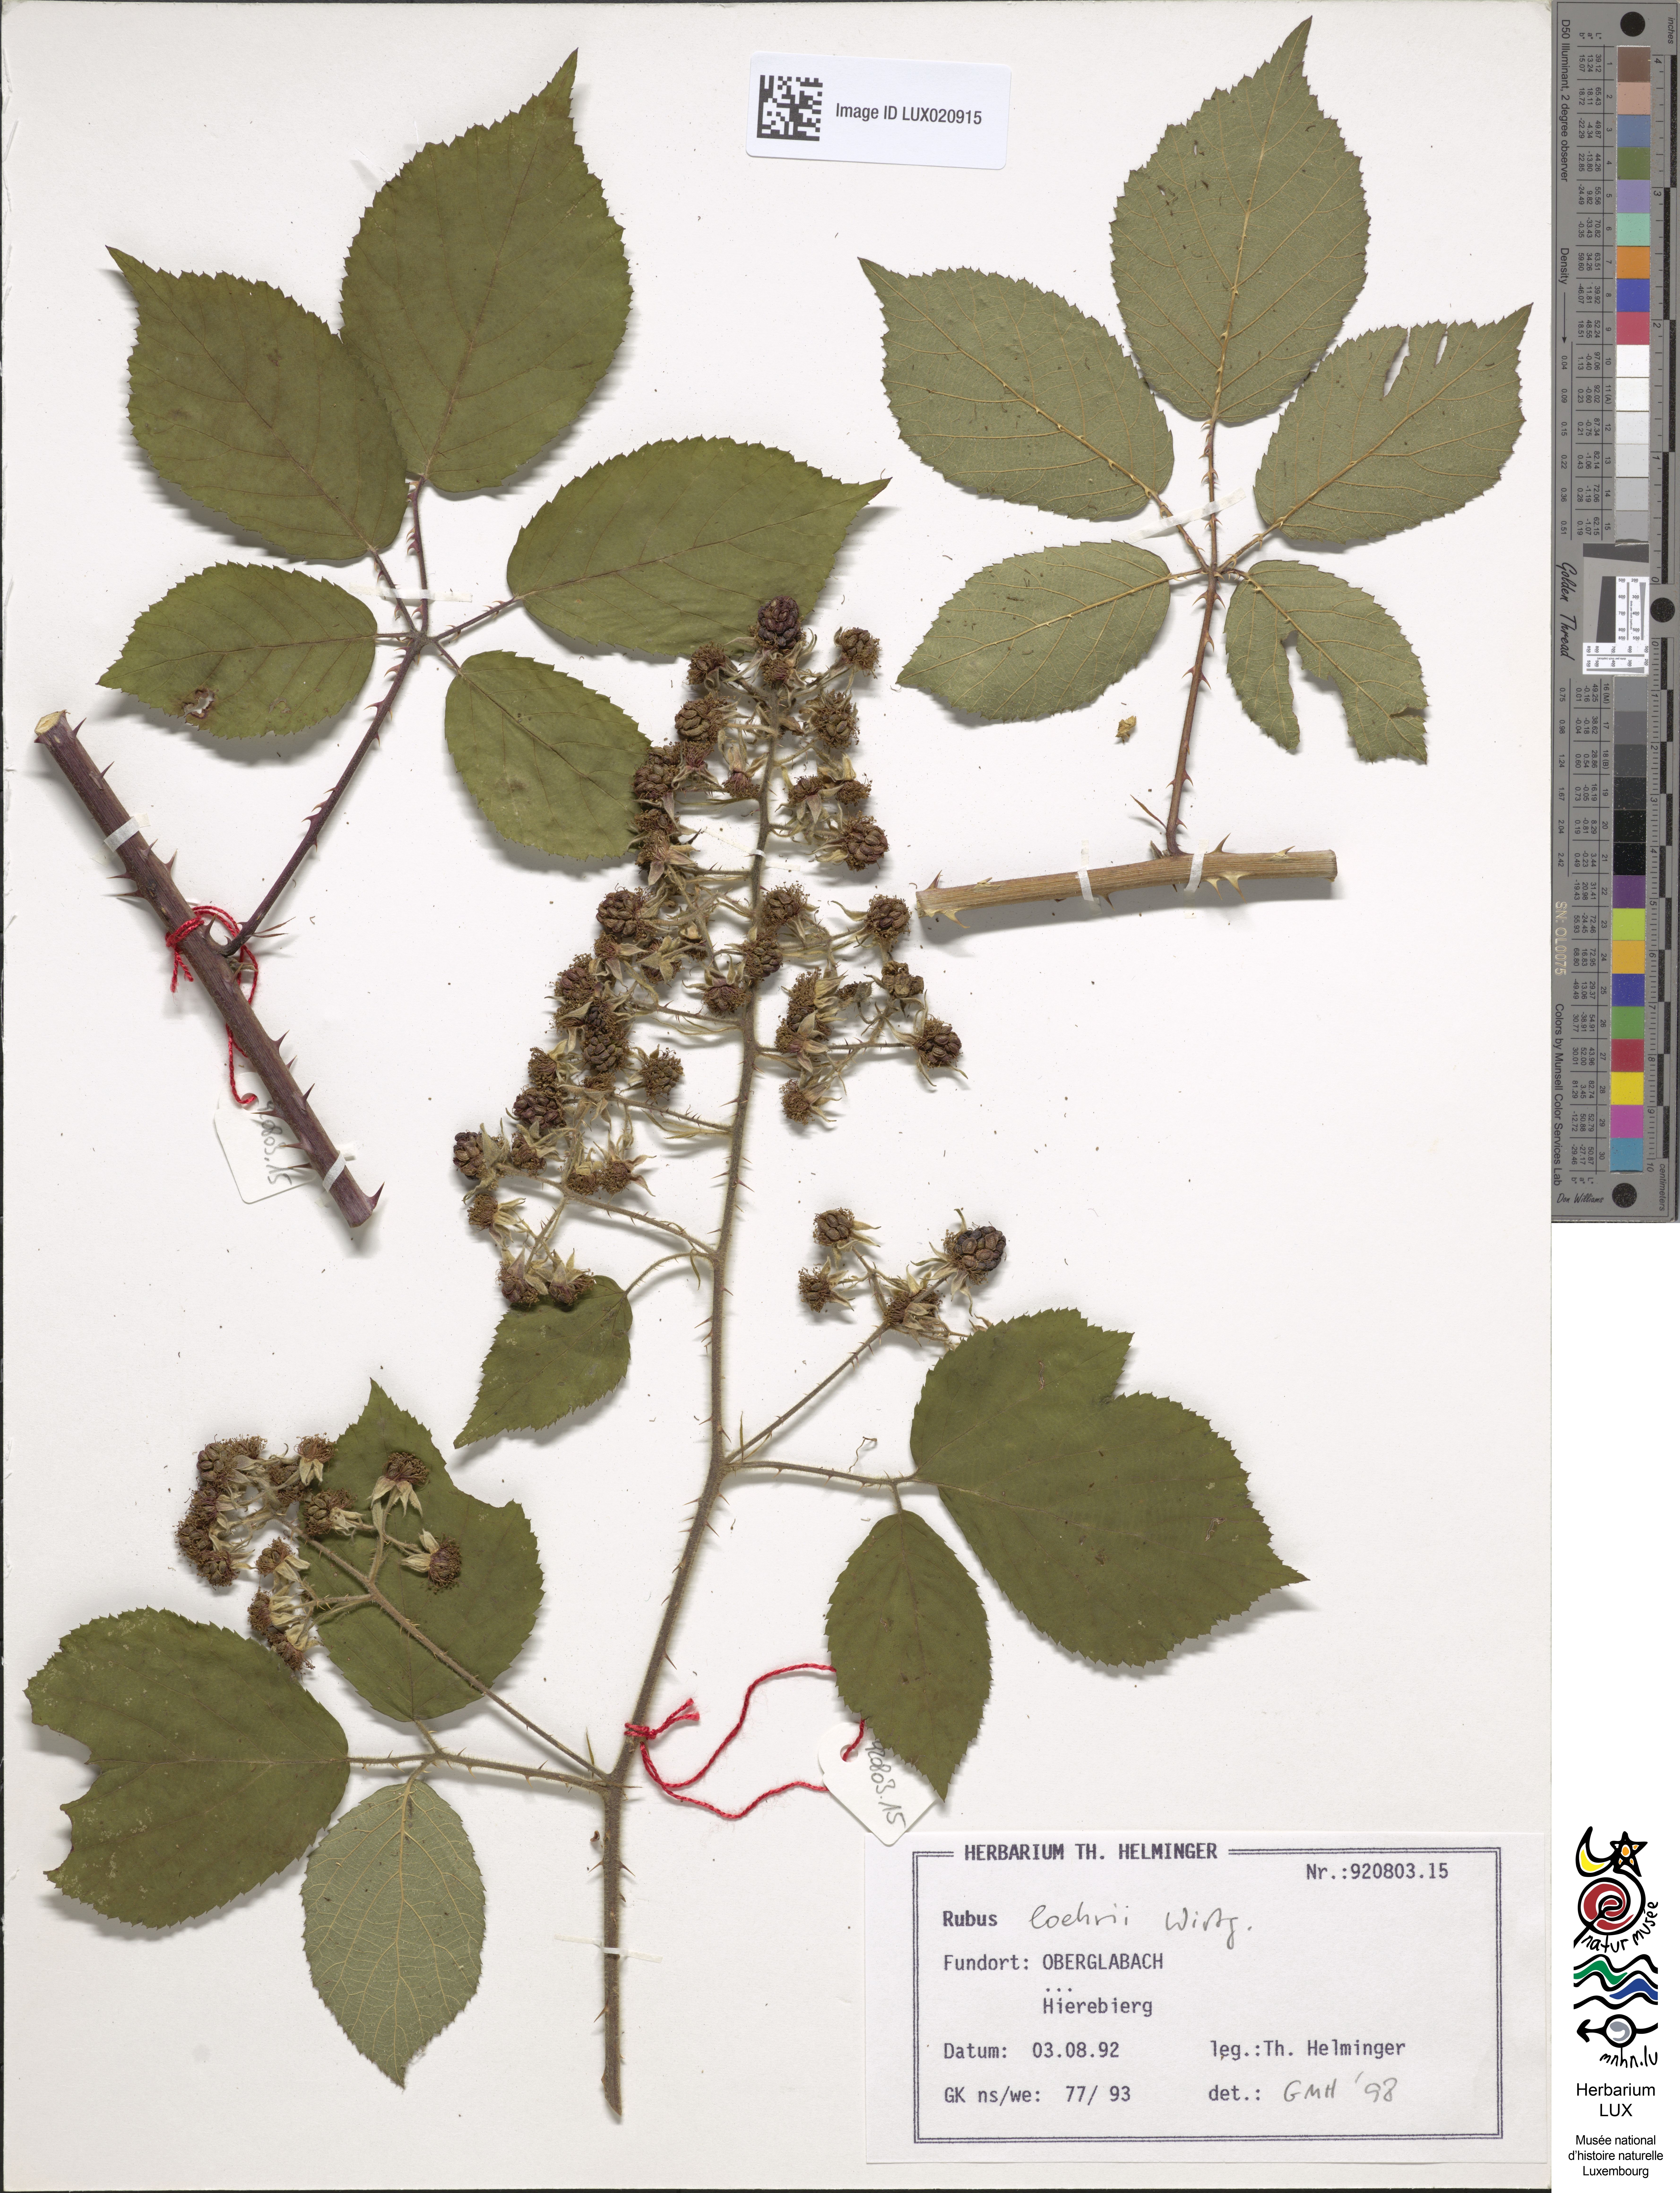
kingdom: Plantae
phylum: Tracheophyta
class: Magnoliopsida
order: Rosales
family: Rosaceae
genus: Rubus
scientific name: Rubus loehrii
